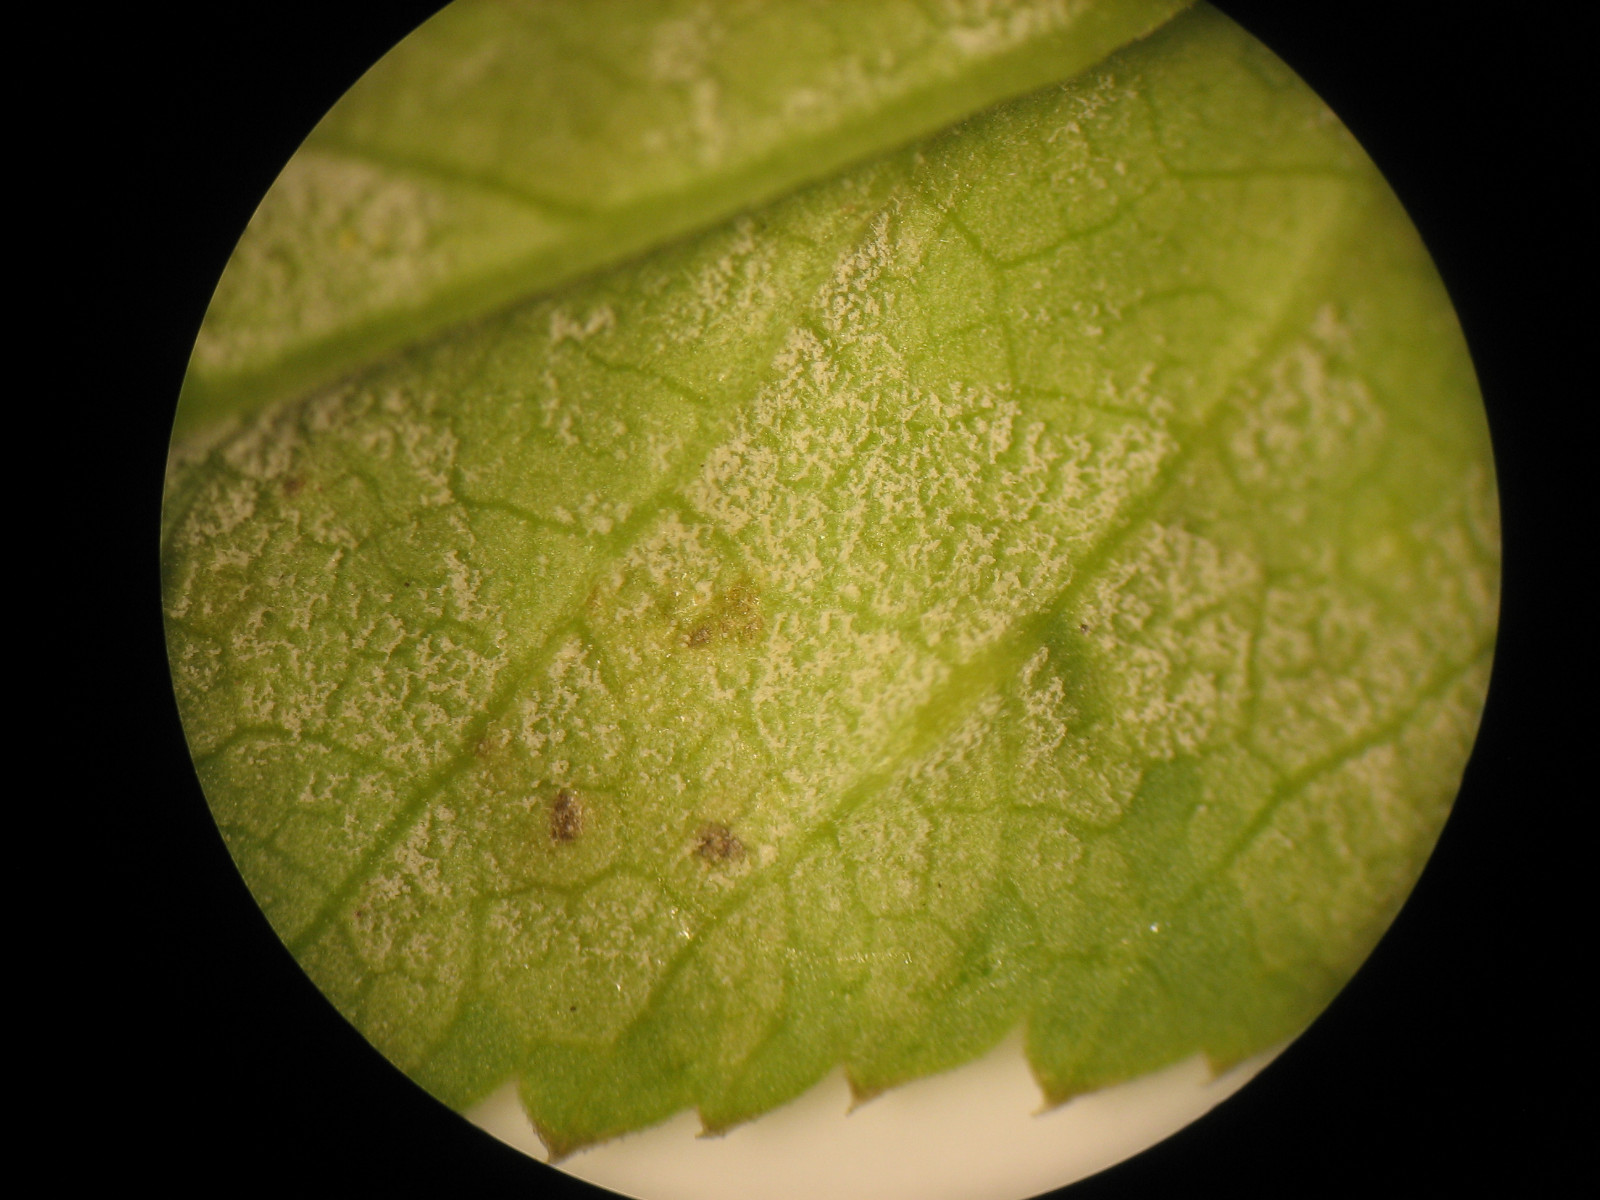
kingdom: Chromista
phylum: Oomycota
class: Peronosporea
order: Peronosporales
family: Peronosporaceae
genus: Peronospora
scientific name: Peronospora crustosa
